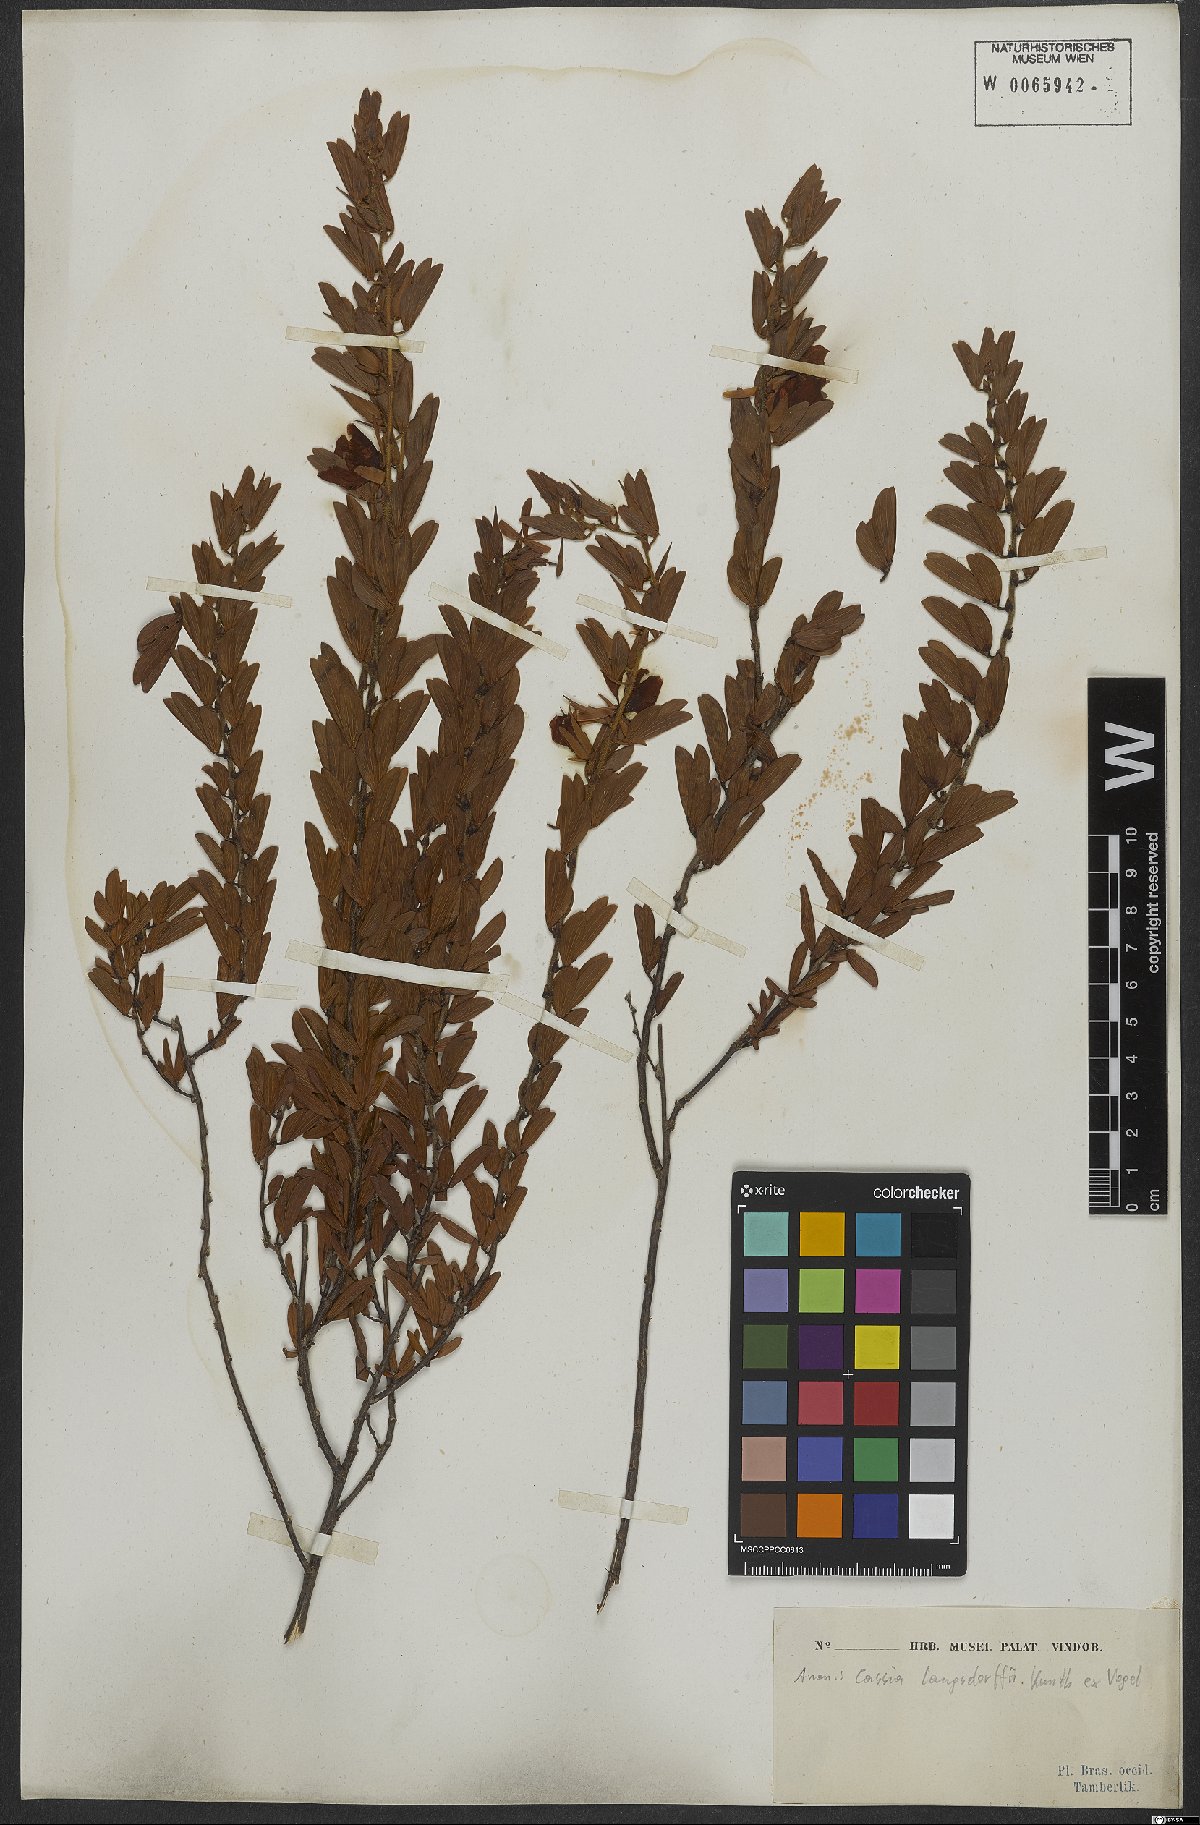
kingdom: Plantae
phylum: Tracheophyta
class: Magnoliopsida
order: Fabales
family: Fabaceae
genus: Chamaecrista
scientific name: Chamaecrista langsdorffii
